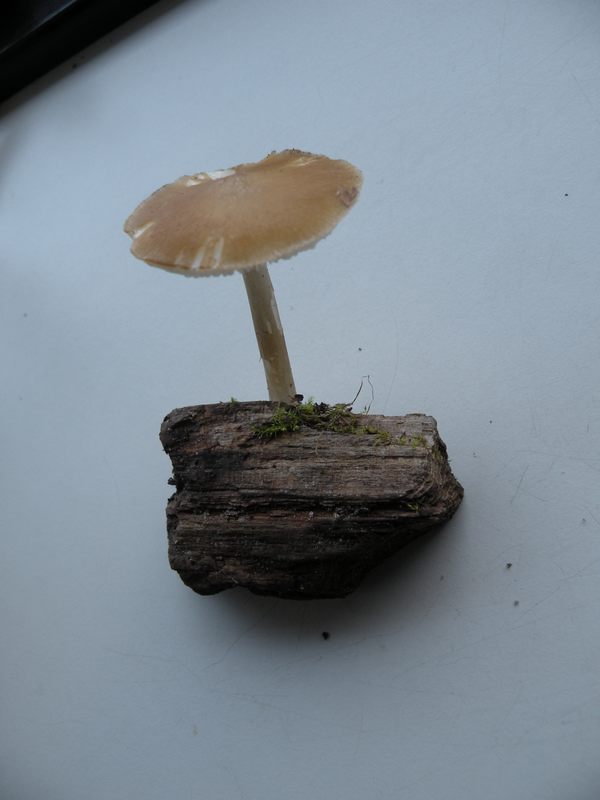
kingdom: Fungi
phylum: Basidiomycota
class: Agaricomycetes
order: Agaricales
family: Porotheleaceae
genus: Hydropodia
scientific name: Hydropodia subalpina
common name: vår-fnugfod
